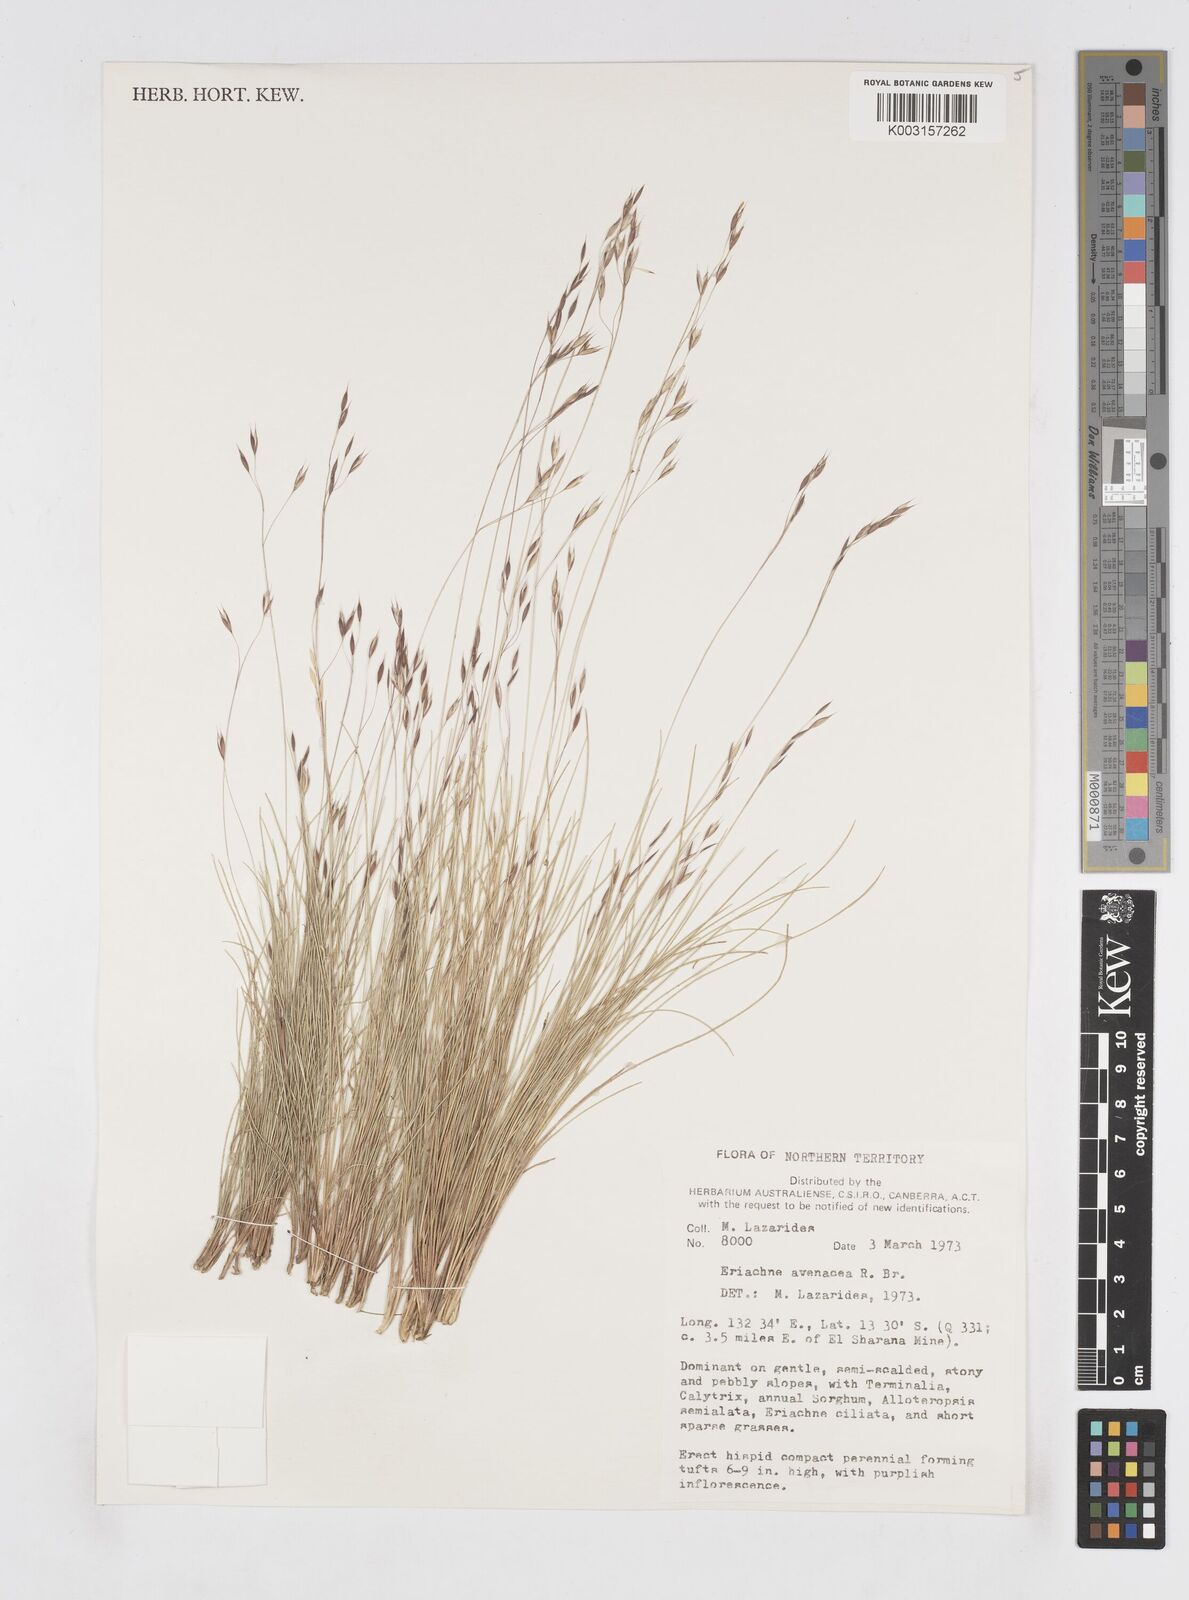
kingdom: Plantae
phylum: Tracheophyta
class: Liliopsida
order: Poales
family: Poaceae
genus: Eriachne
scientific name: Eriachne avenacea
